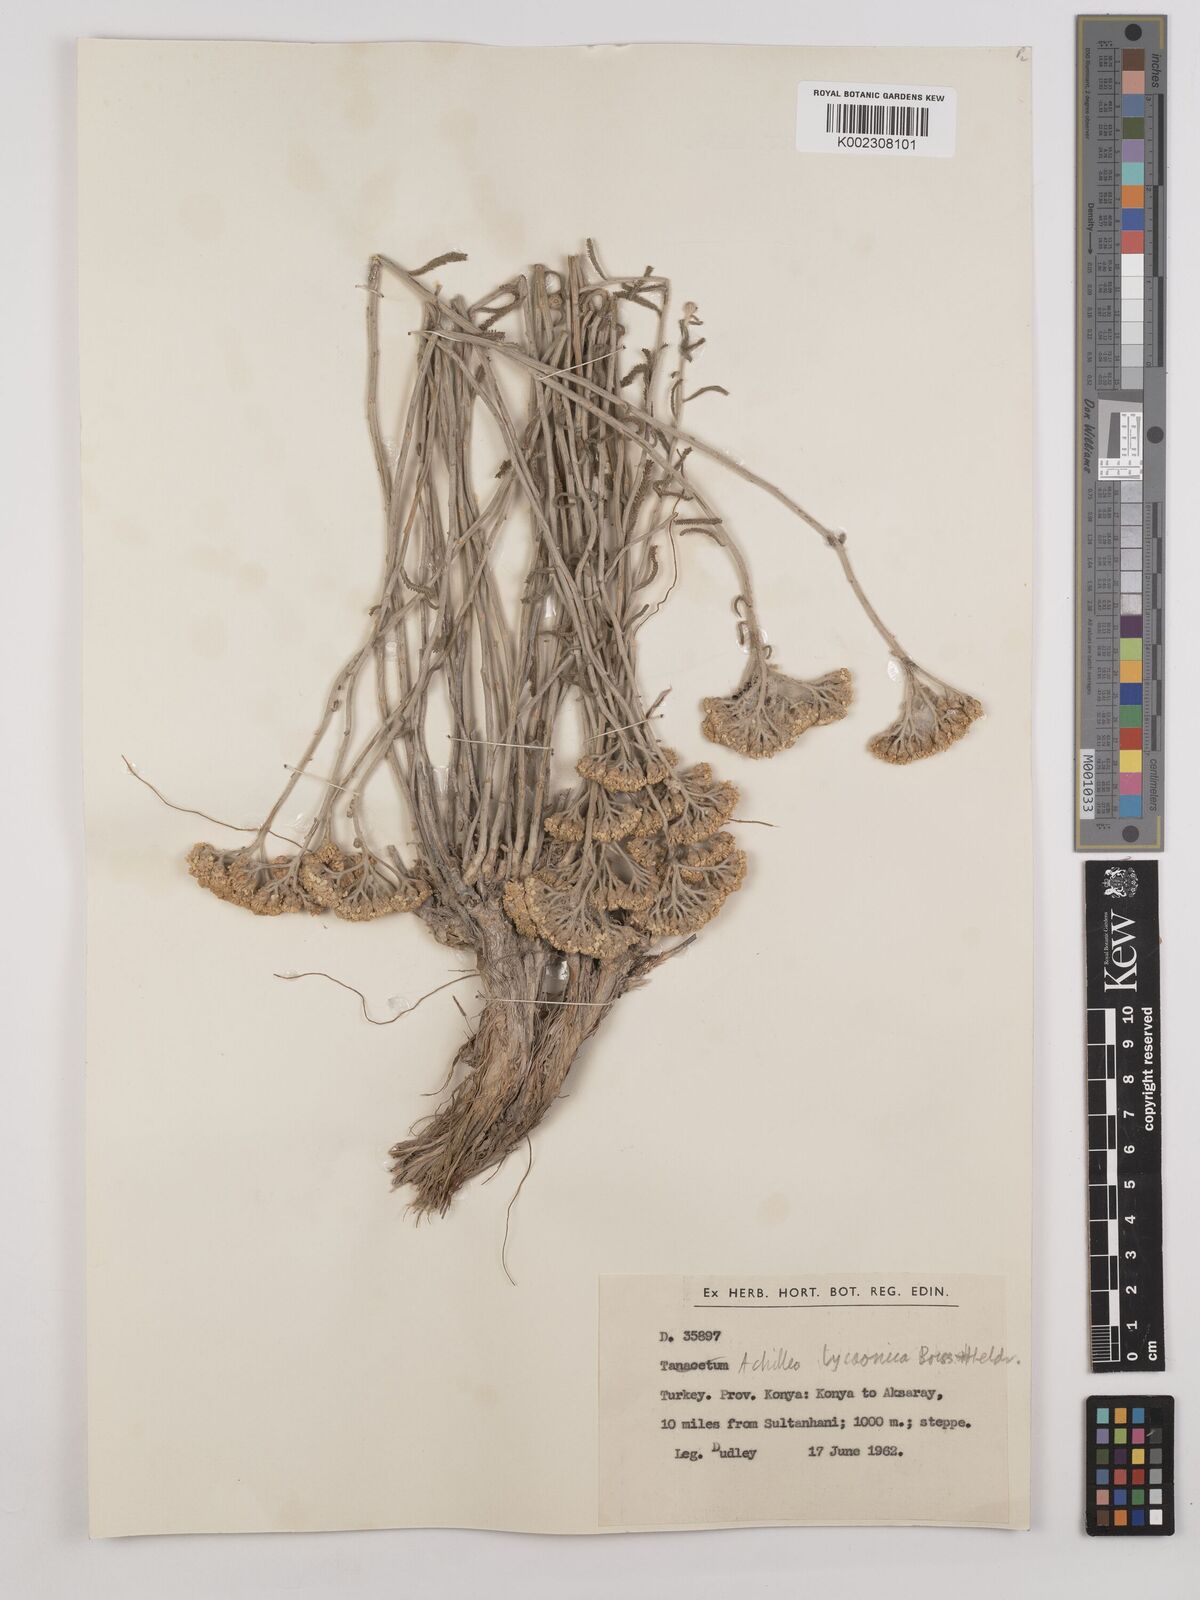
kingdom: Plantae
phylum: Tracheophyta
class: Magnoliopsida
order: Asterales
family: Asteraceae
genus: Achillea
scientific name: Achillea lycaonica
